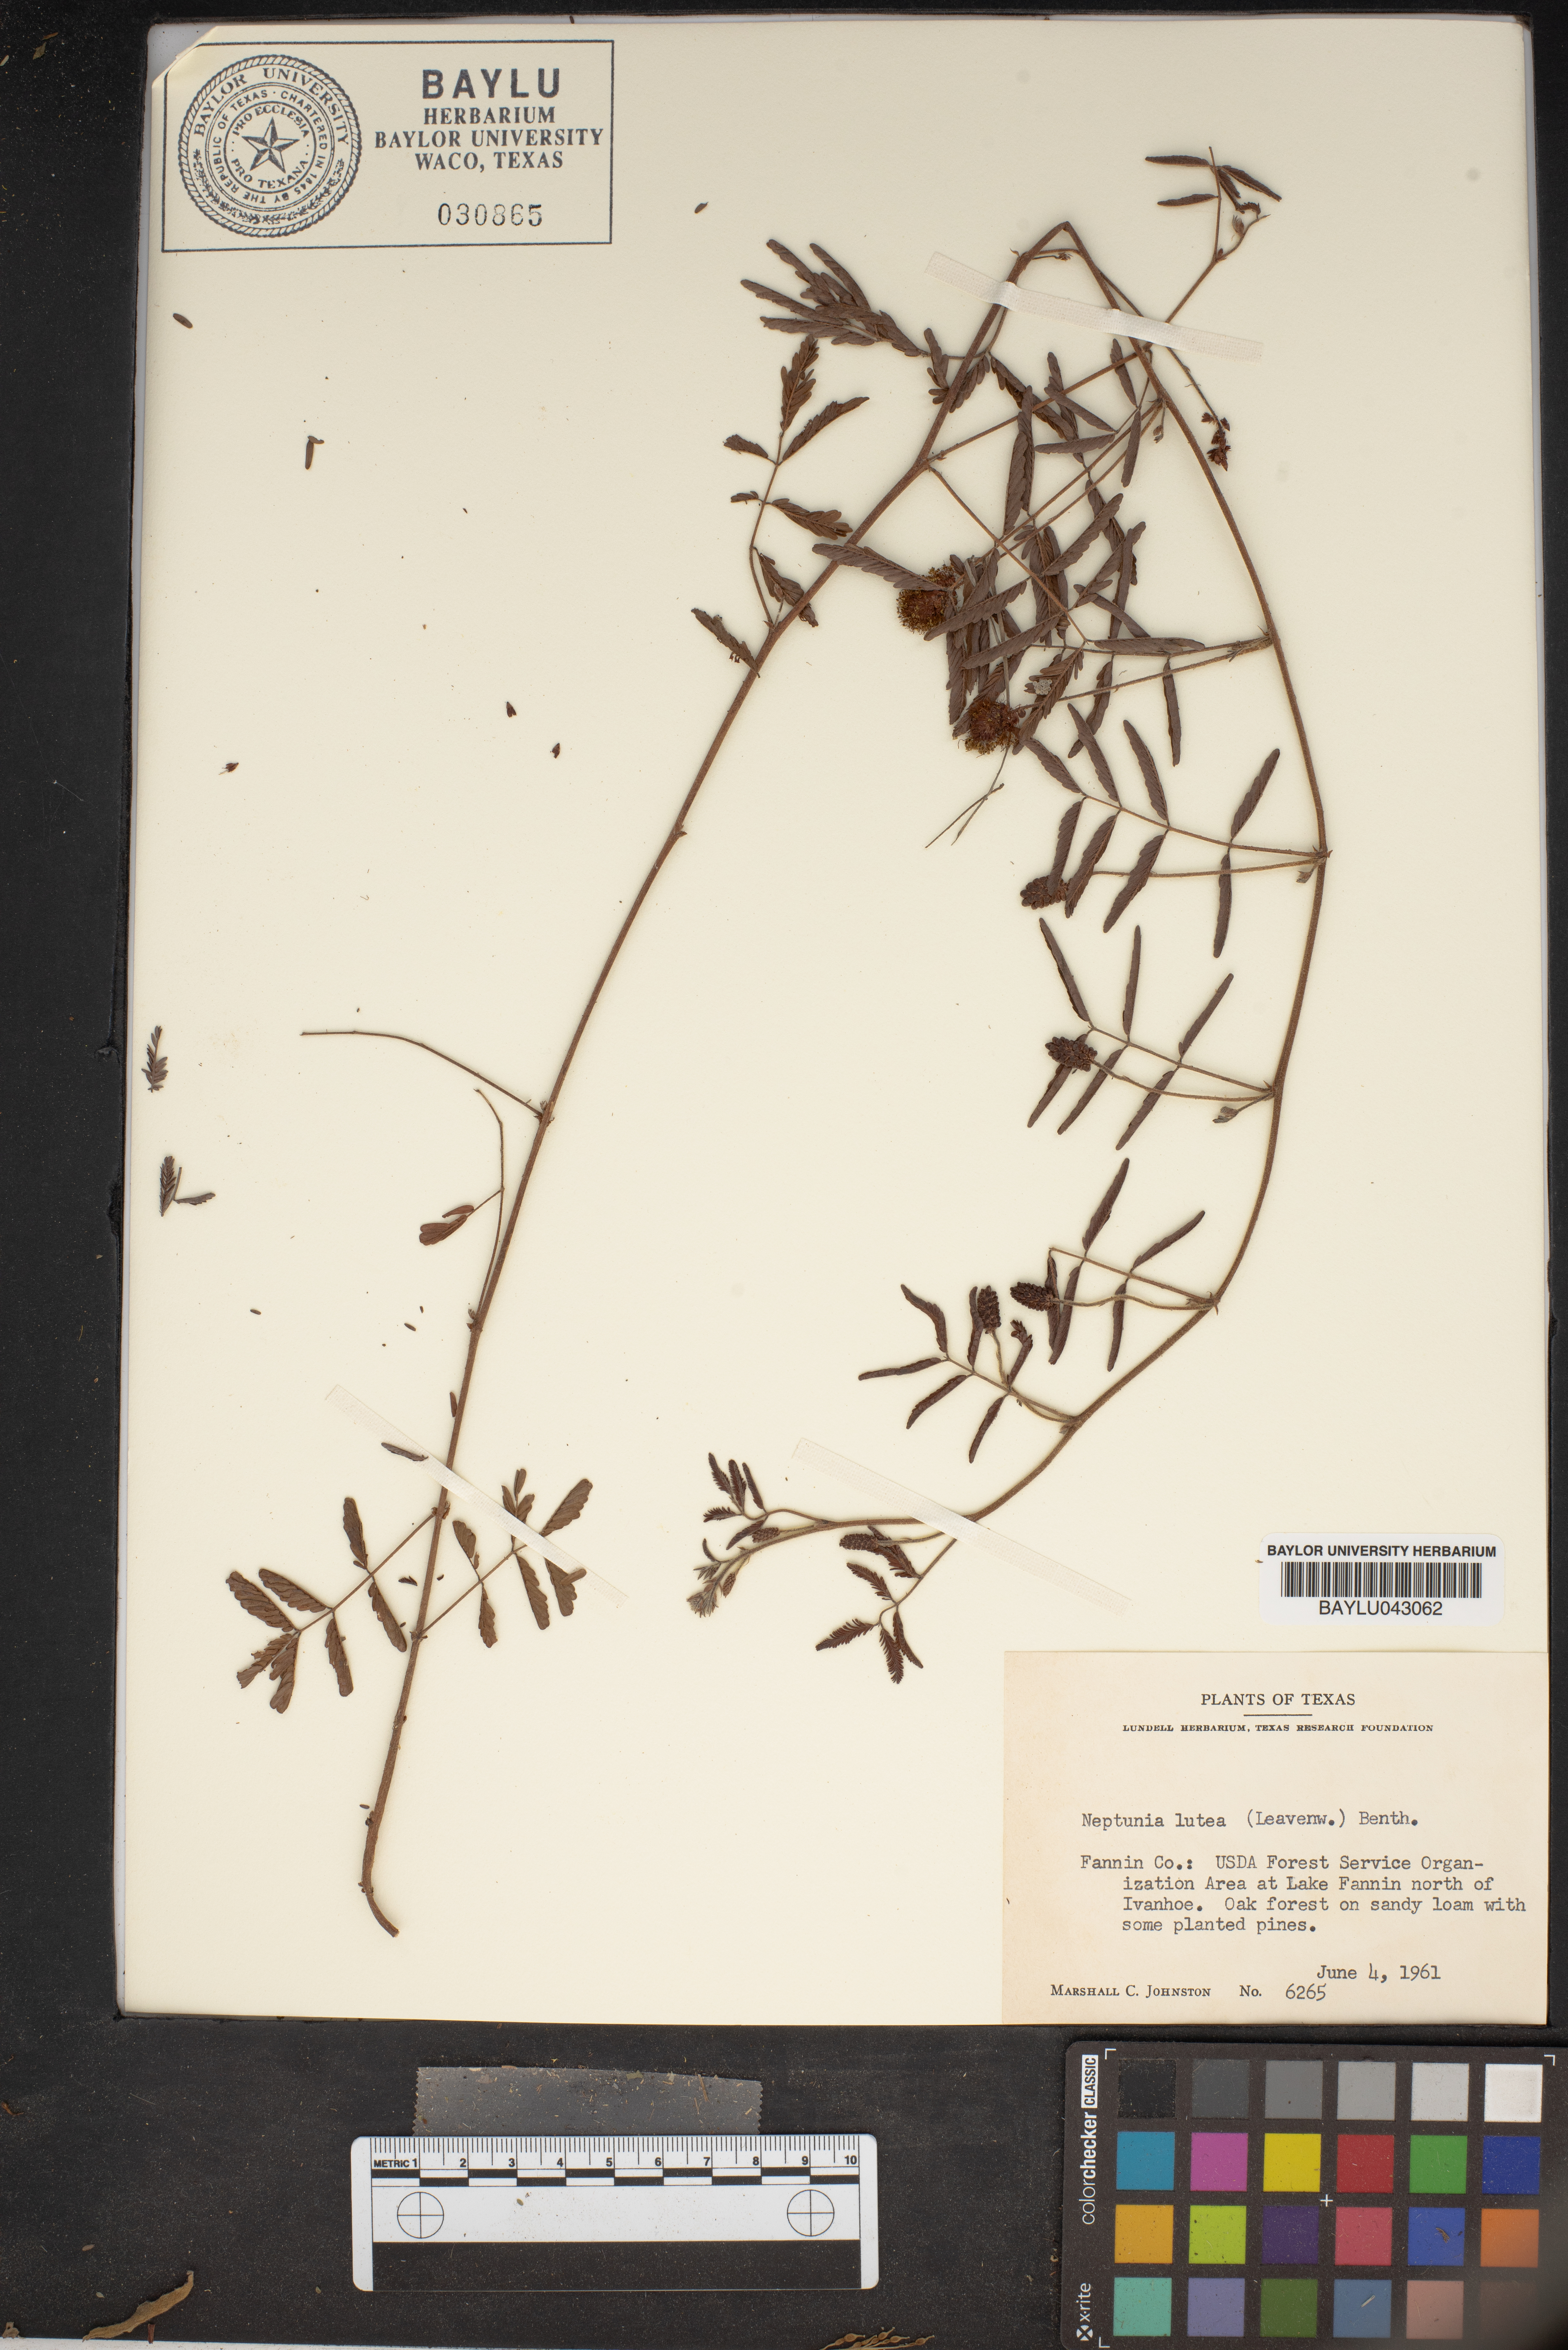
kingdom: Plantae
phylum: Tracheophyta
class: Magnoliopsida
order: Fabales
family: Fabaceae
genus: Neptunia
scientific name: Neptunia lutea
